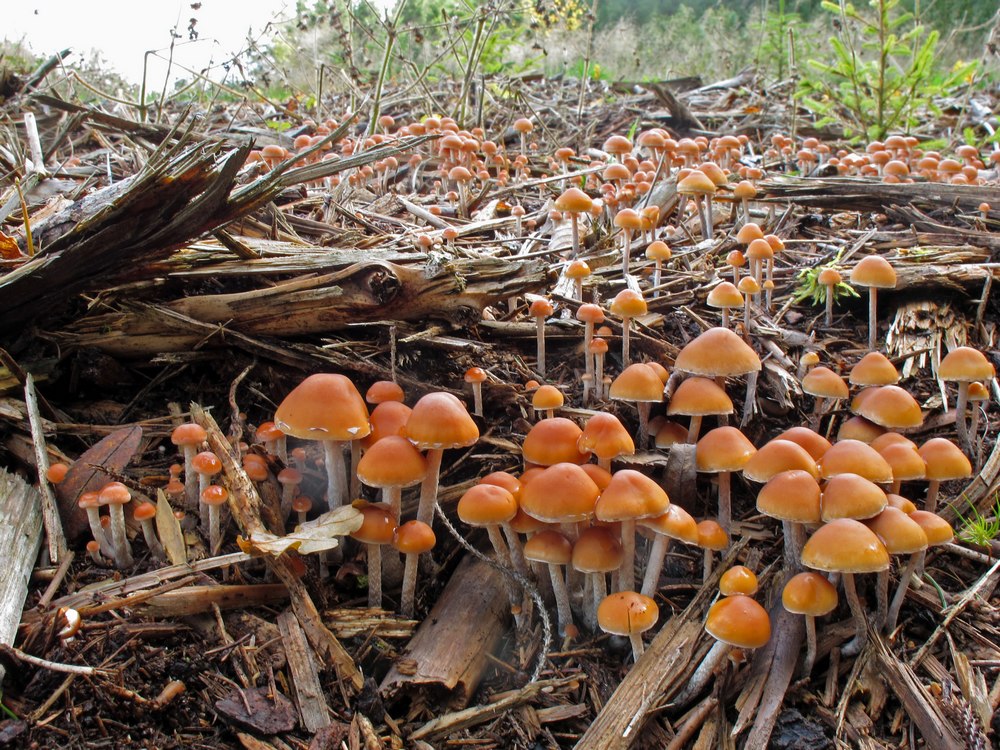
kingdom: Fungi
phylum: Basidiomycota
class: Agaricomycetes
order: Agaricales
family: Strophariaceae
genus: Hypholoma
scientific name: Hypholoma marginatum
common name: enlig svovlhat
